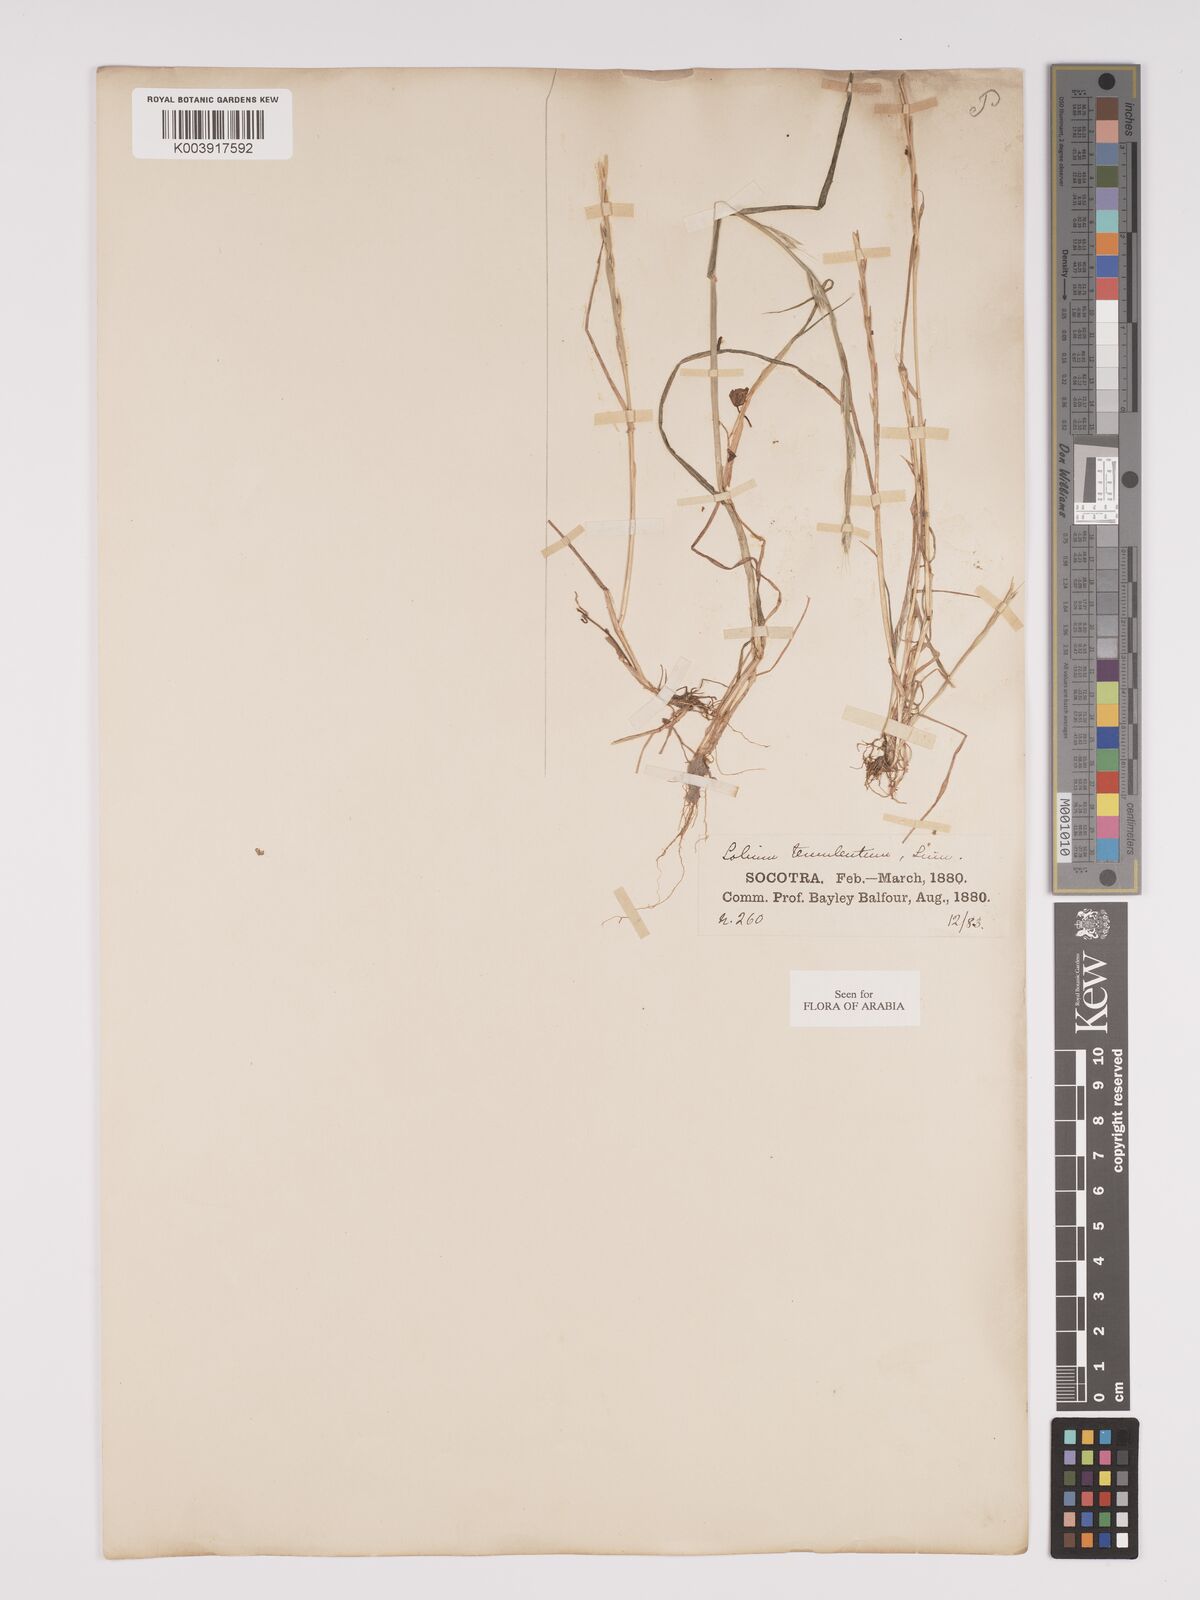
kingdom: Plantae
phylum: Tracheophyta
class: Liliopsida
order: Poales
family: Poaceae
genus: Lolium
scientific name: Lolium temulentum
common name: Darnel
